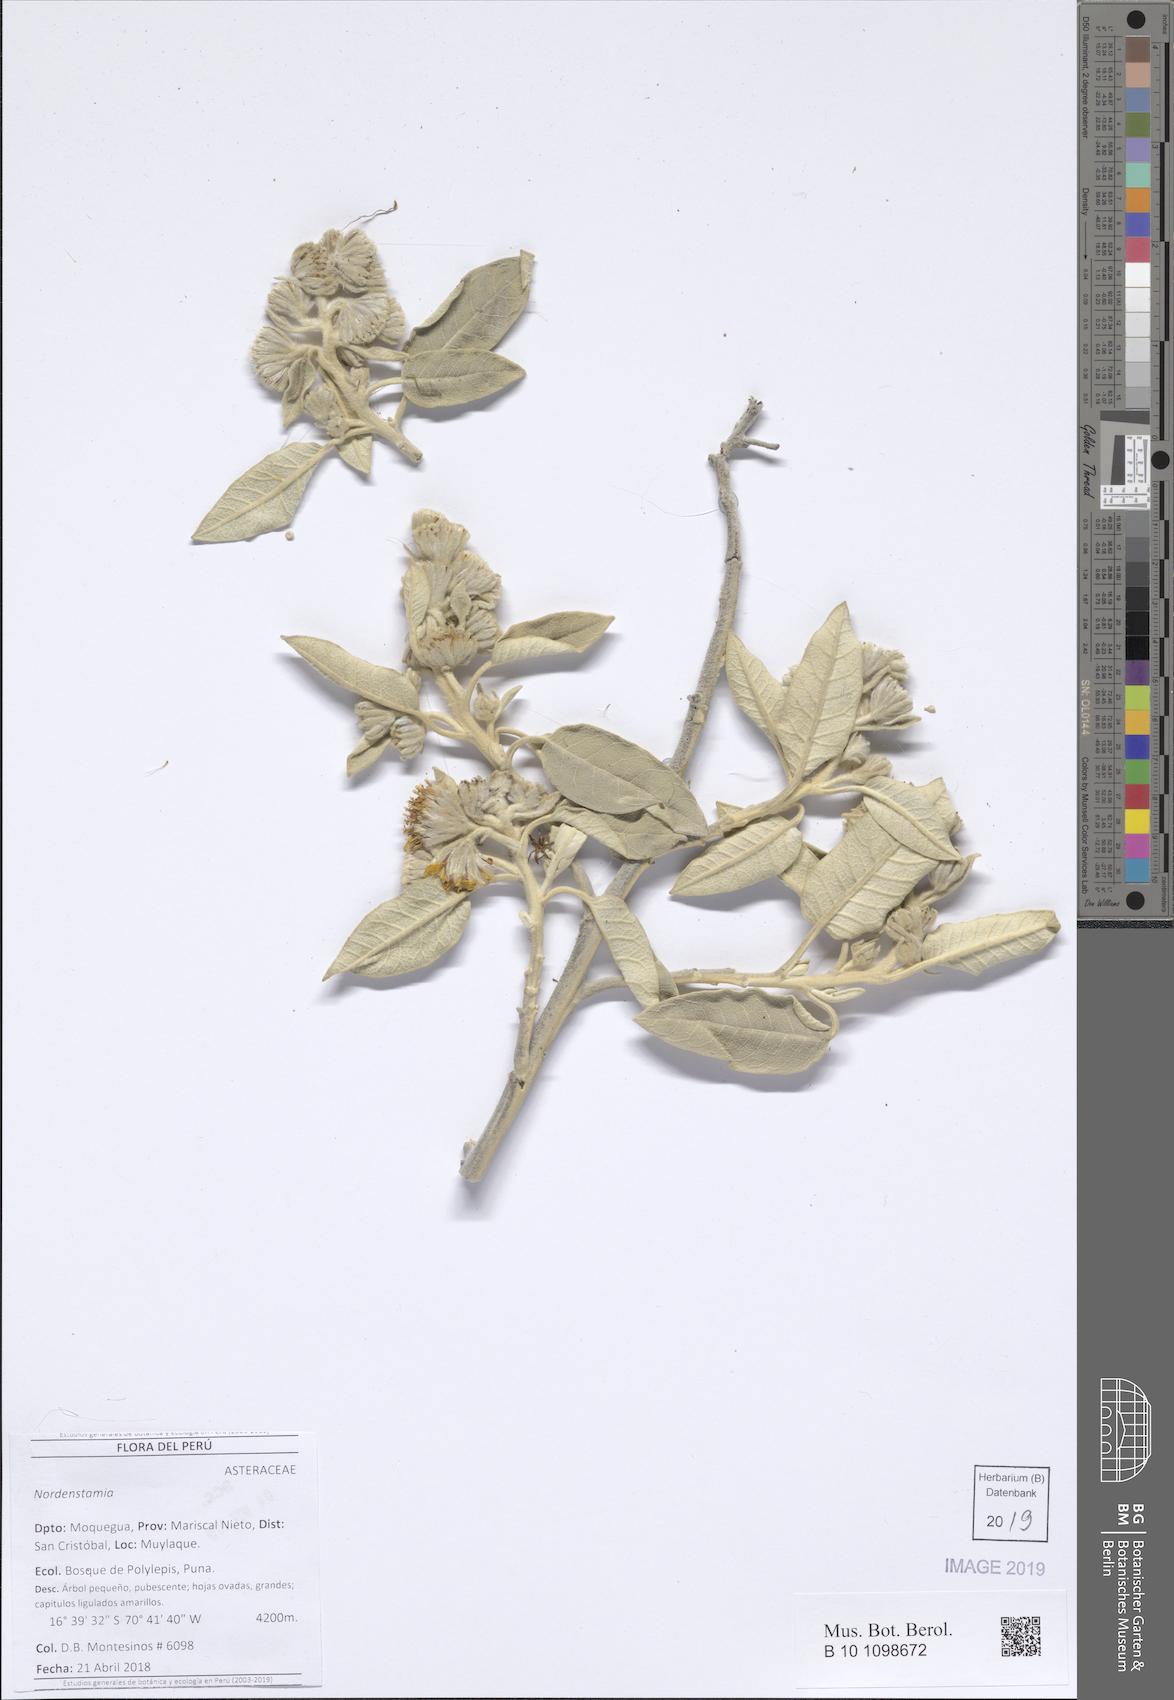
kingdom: Plantae
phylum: Tracheophyta
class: Magnoliopsida
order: Asterales
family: Asteraceae
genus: Nordenstamia
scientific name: Nordenstamia
